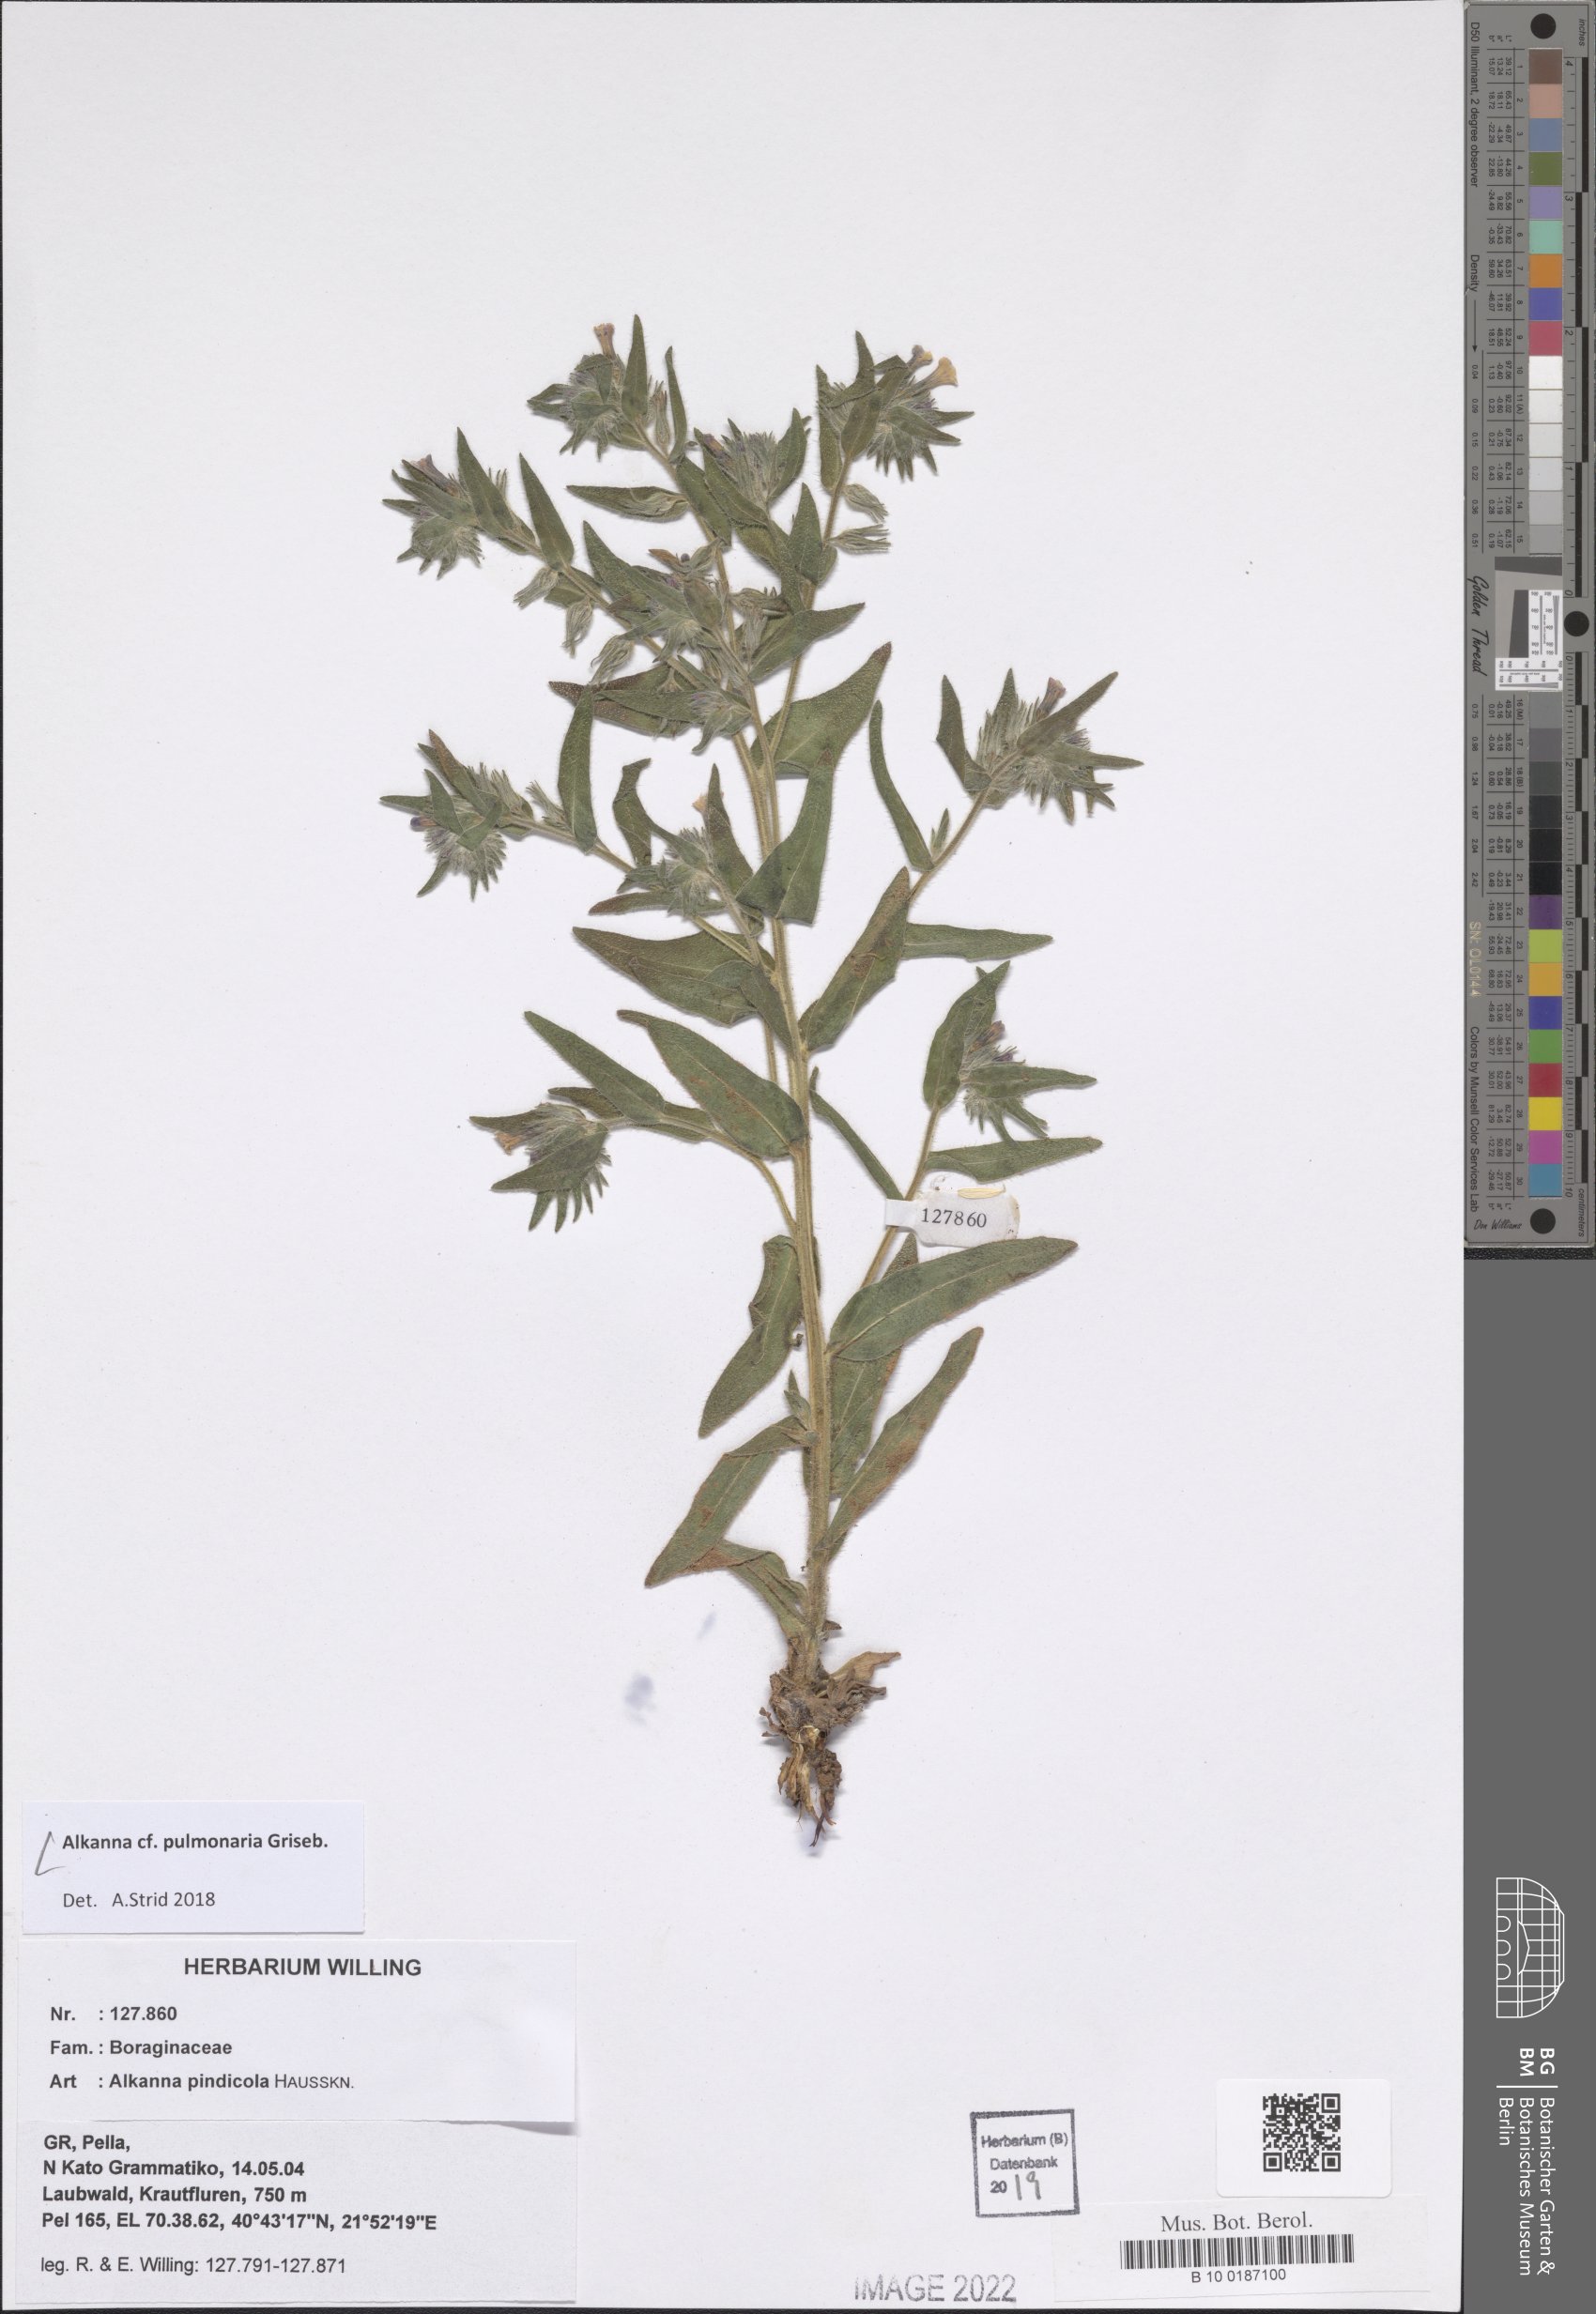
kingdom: Plantae
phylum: Tracheophyta
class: Magnoliopsida
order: Boraginales
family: Boraginaceae
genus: Alkanna
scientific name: Alkanna pulmonaria
